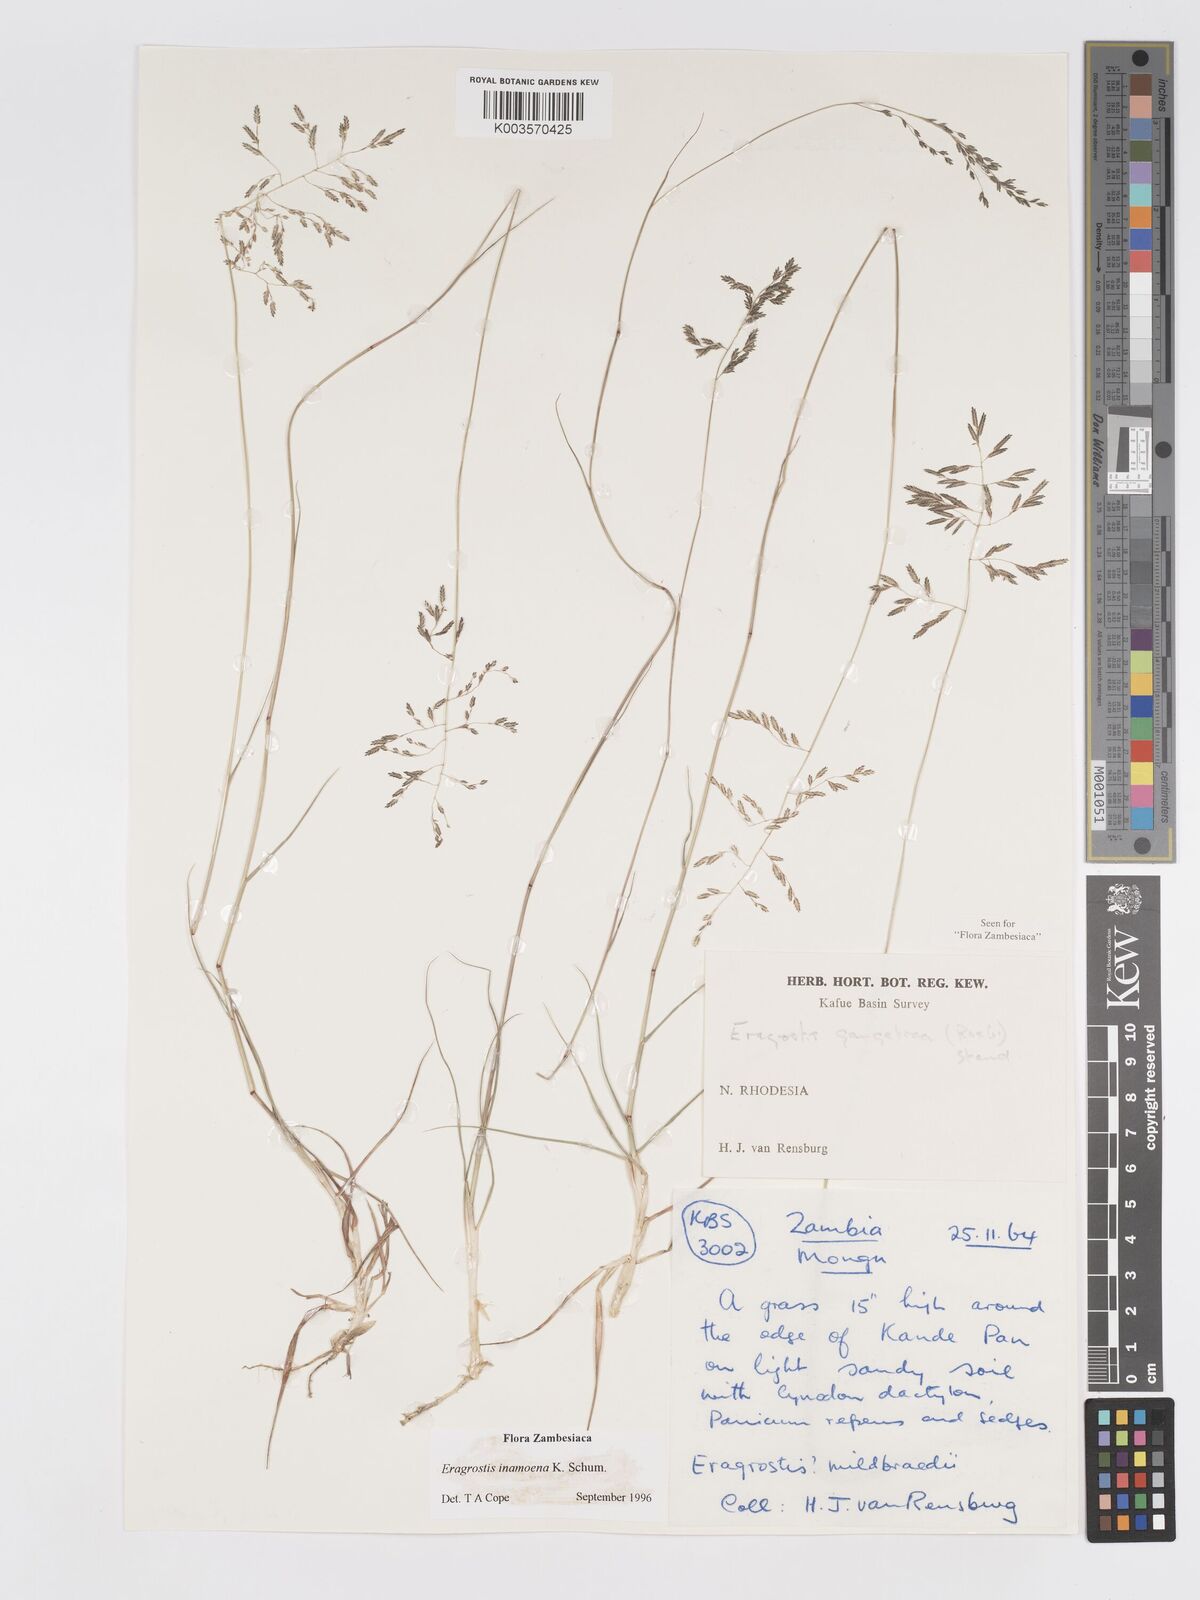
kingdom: Plantae
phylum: Tracheophyta
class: Liliopsida
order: Poales
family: Poaceae
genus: Eragrostis
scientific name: Eragrostis inamoena
